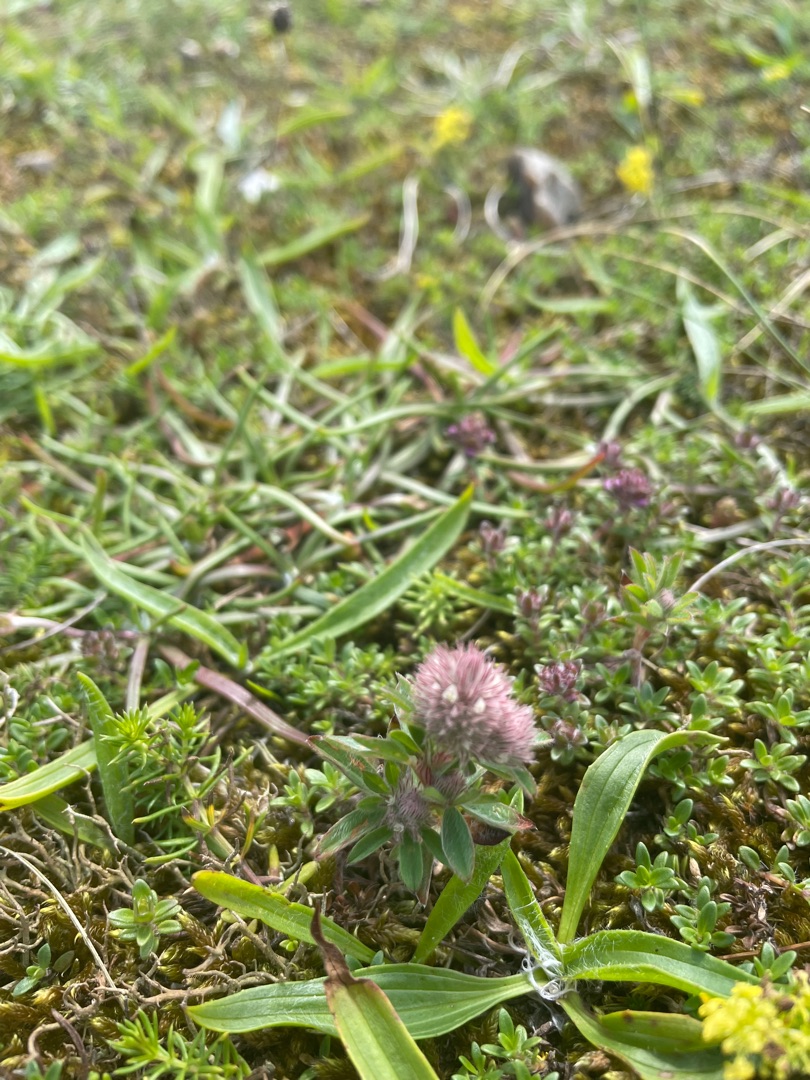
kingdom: Plantae
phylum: Tracheophyta
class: Magnoliopsida
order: Fabales
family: Fabaceae
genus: Trifolium
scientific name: Trifolium arvense
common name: Hare-kløver
